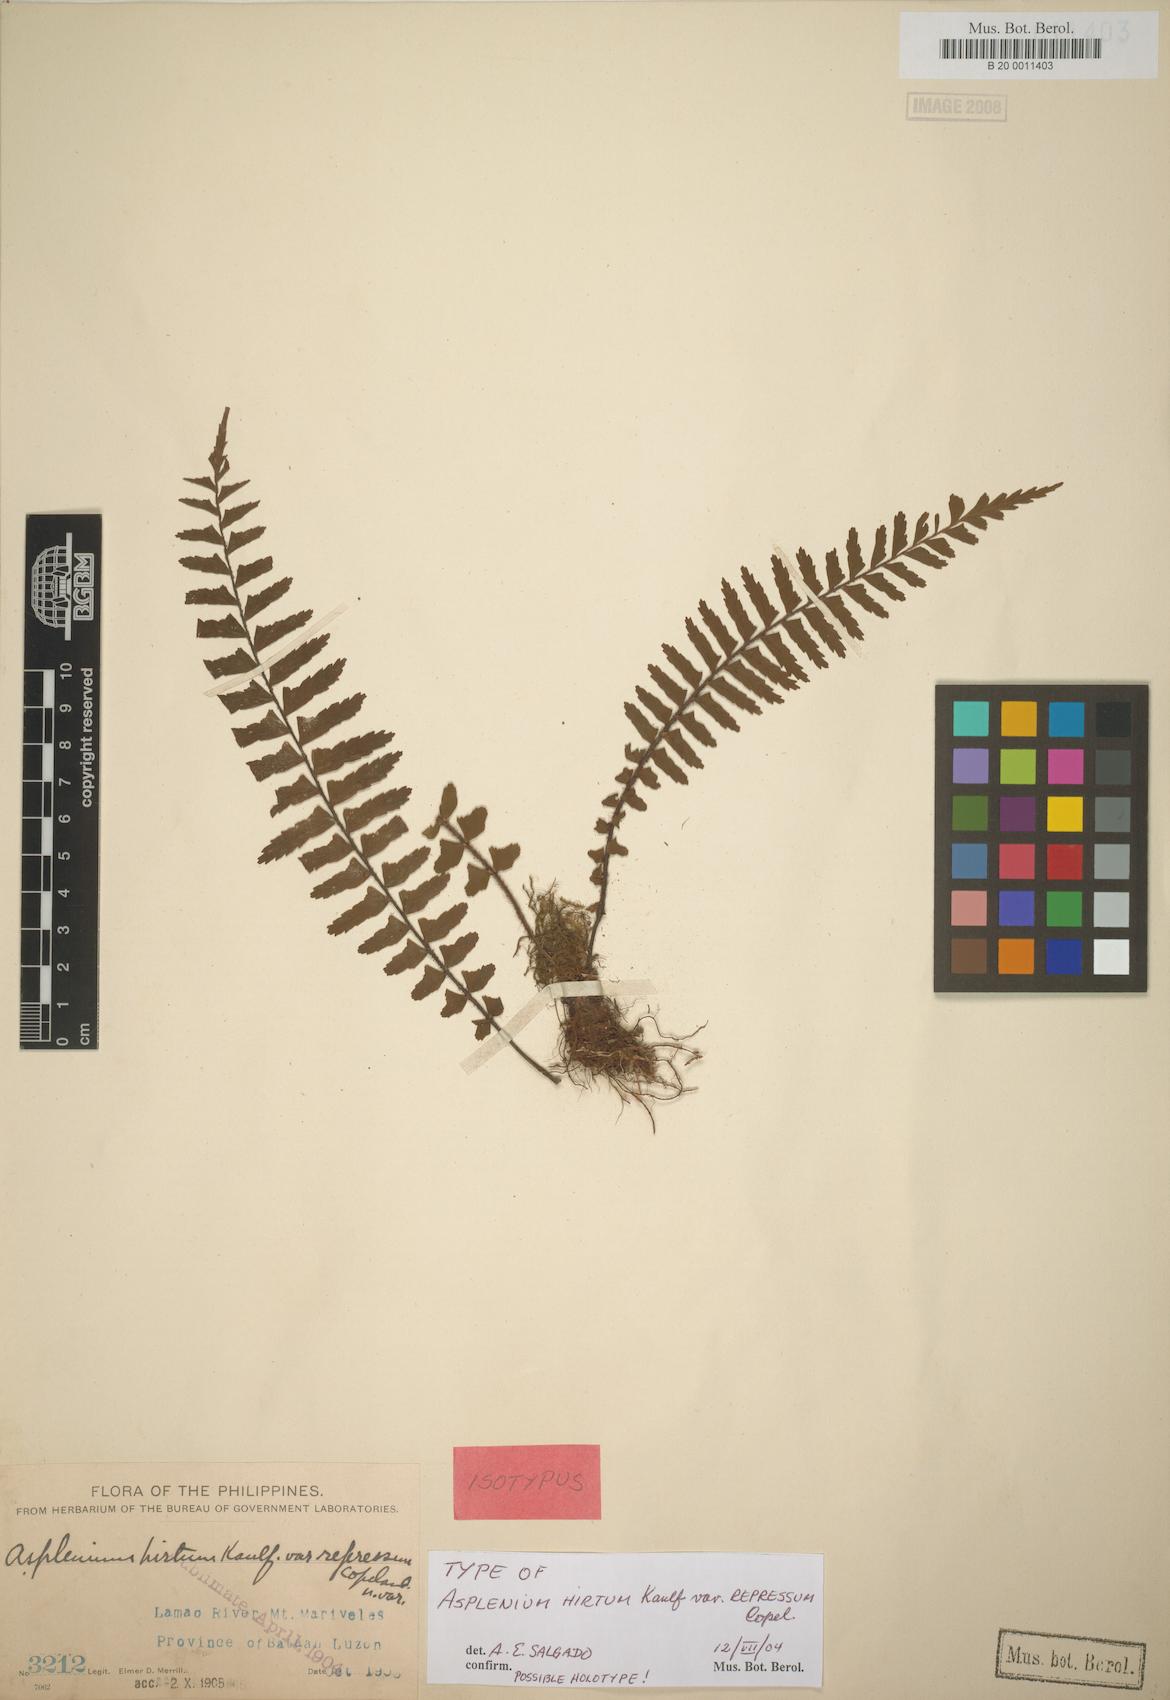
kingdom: Plantae
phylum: Tracheophyta
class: Polypodiopsida
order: Polypodiales
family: Aspleniaceae
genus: Asplenium
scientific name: Asplenium pellucidum
